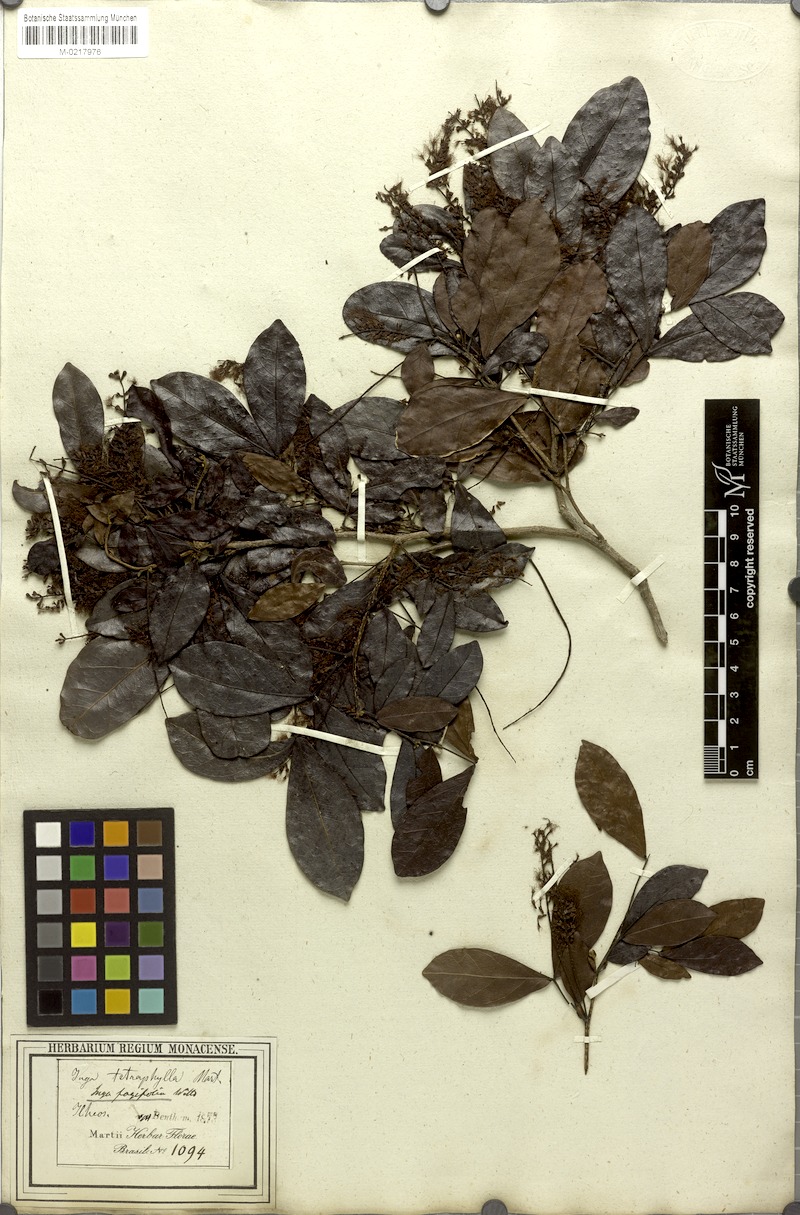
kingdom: Plantae
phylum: Tracheophyta
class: Magnoliopsida
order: Fabales
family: Fabaceae
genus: Inga
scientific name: Inga laurina
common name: Red wood
